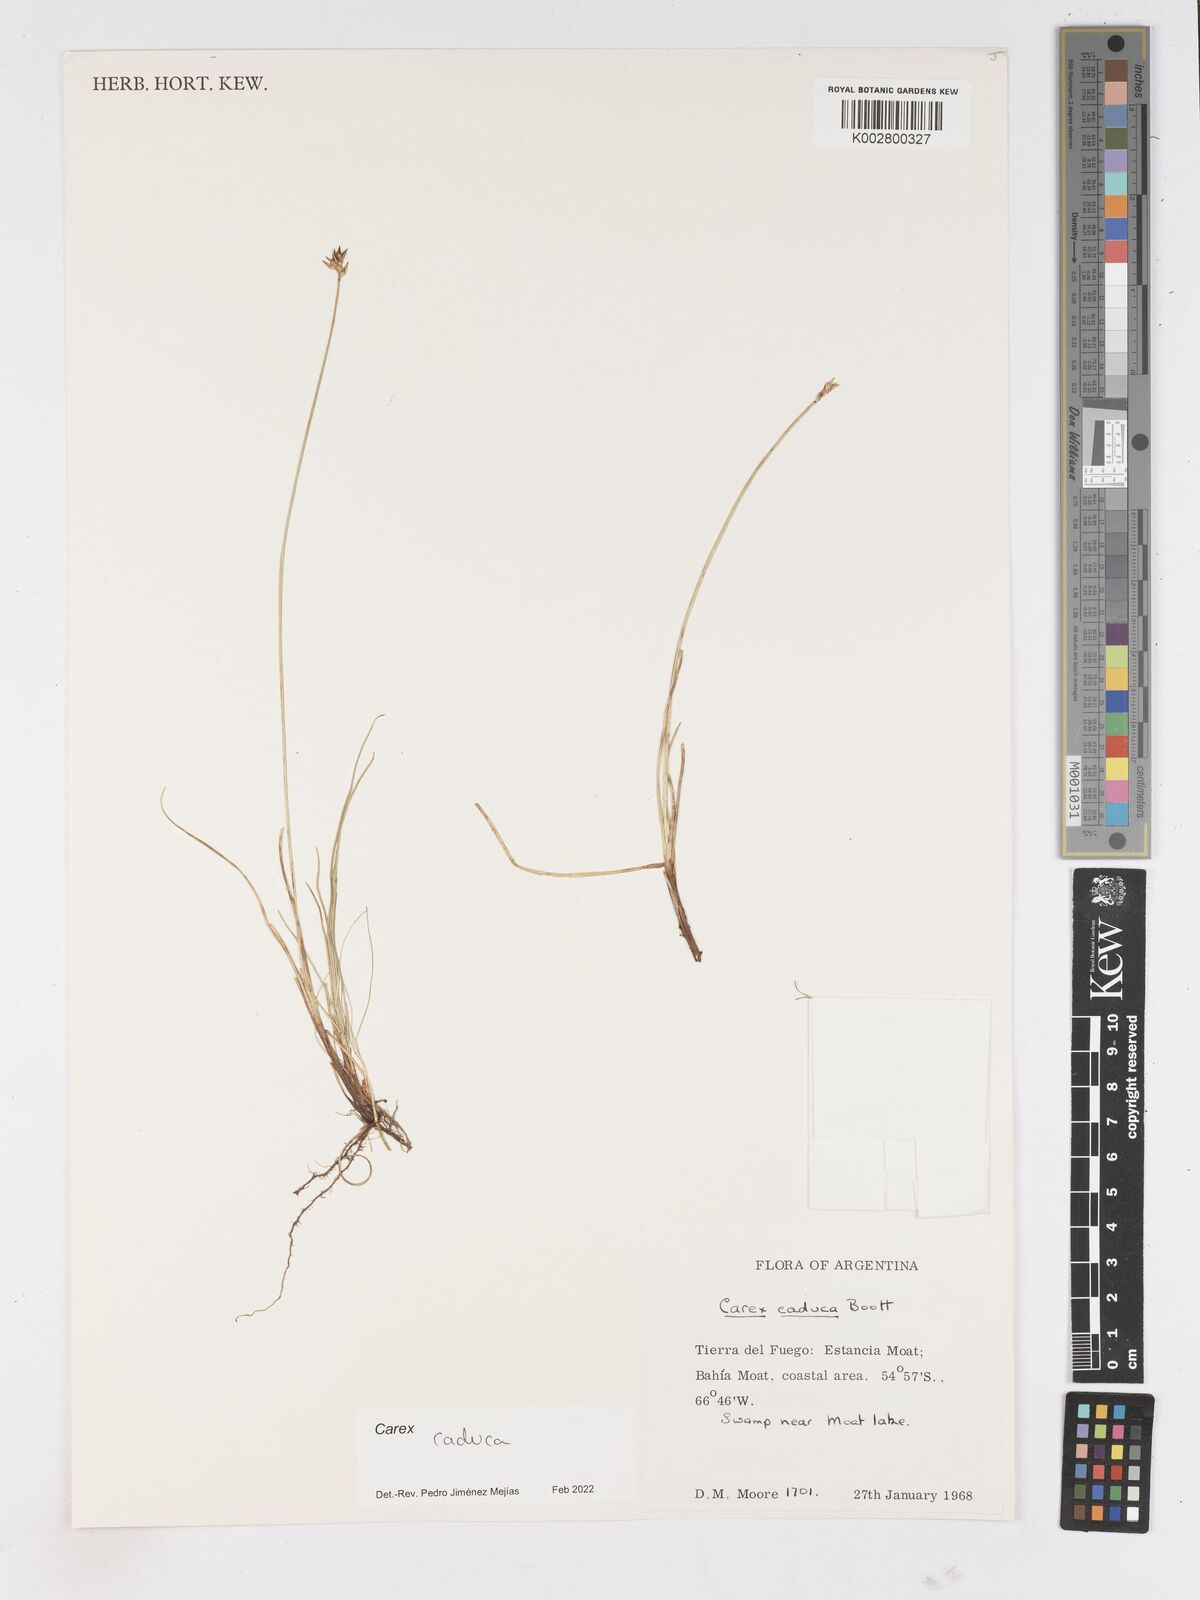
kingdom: Plantae
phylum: Tracheophyta
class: Liliopsida
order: Poales
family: Cyperaceae
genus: Carex
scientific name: Carex caduca
